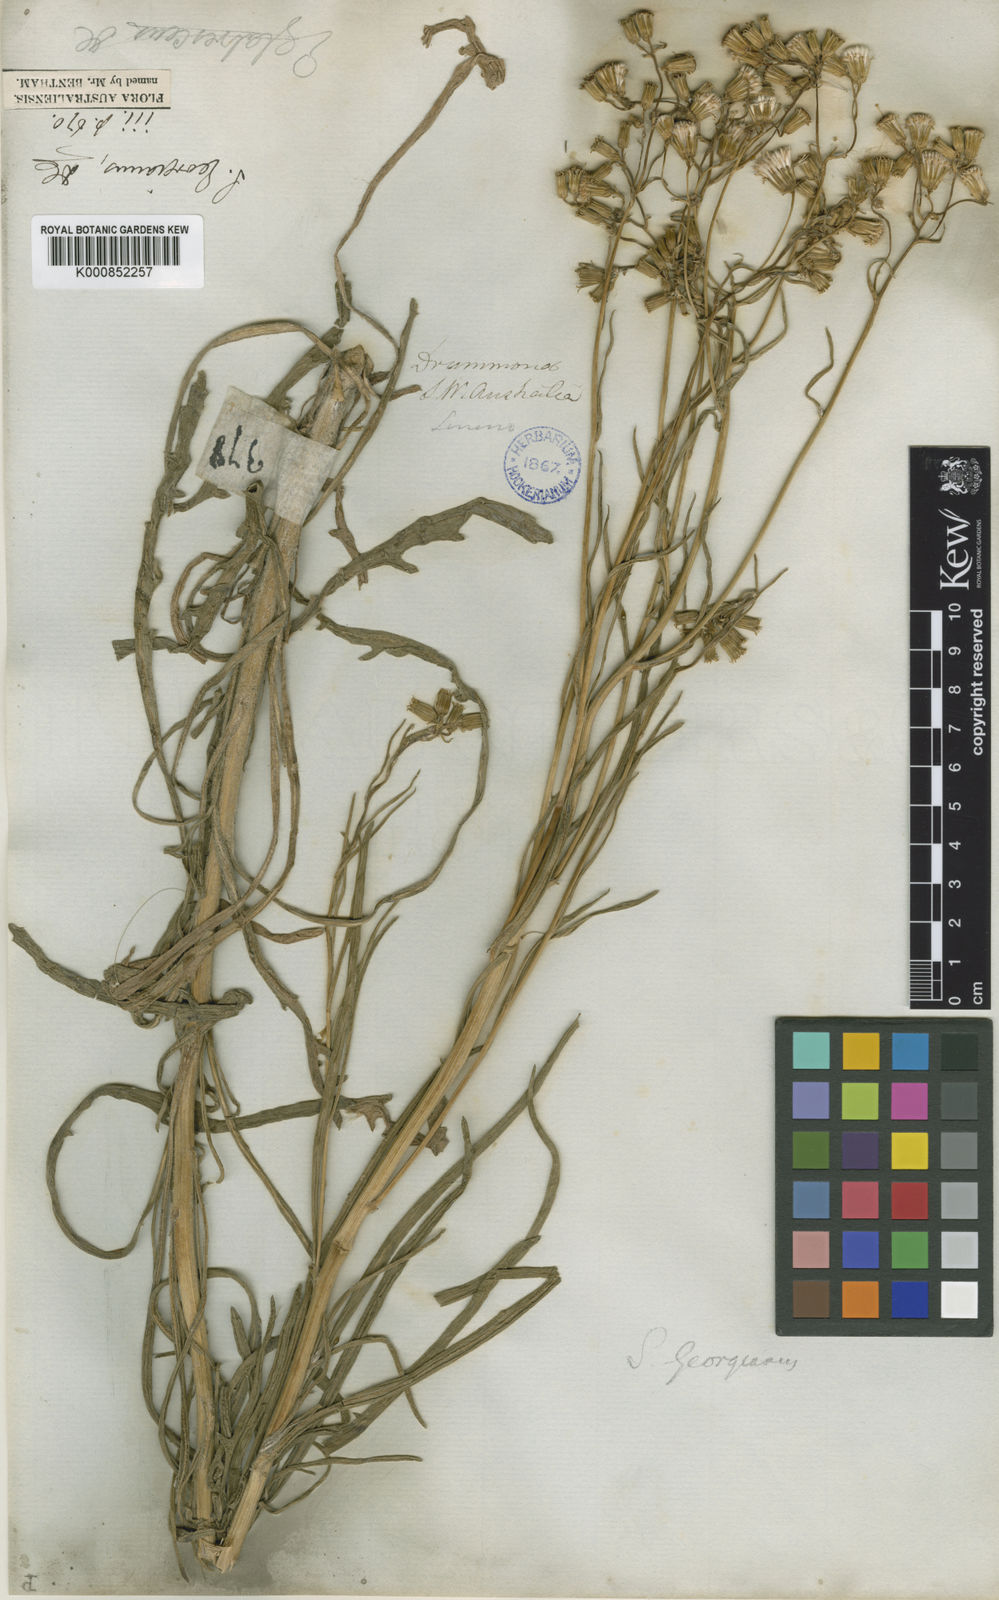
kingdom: Plantae
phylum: Tracheophyta
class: Magnoliopsida
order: Asterales
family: Asteraceae
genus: Senecio
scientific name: Senecio georgianus
